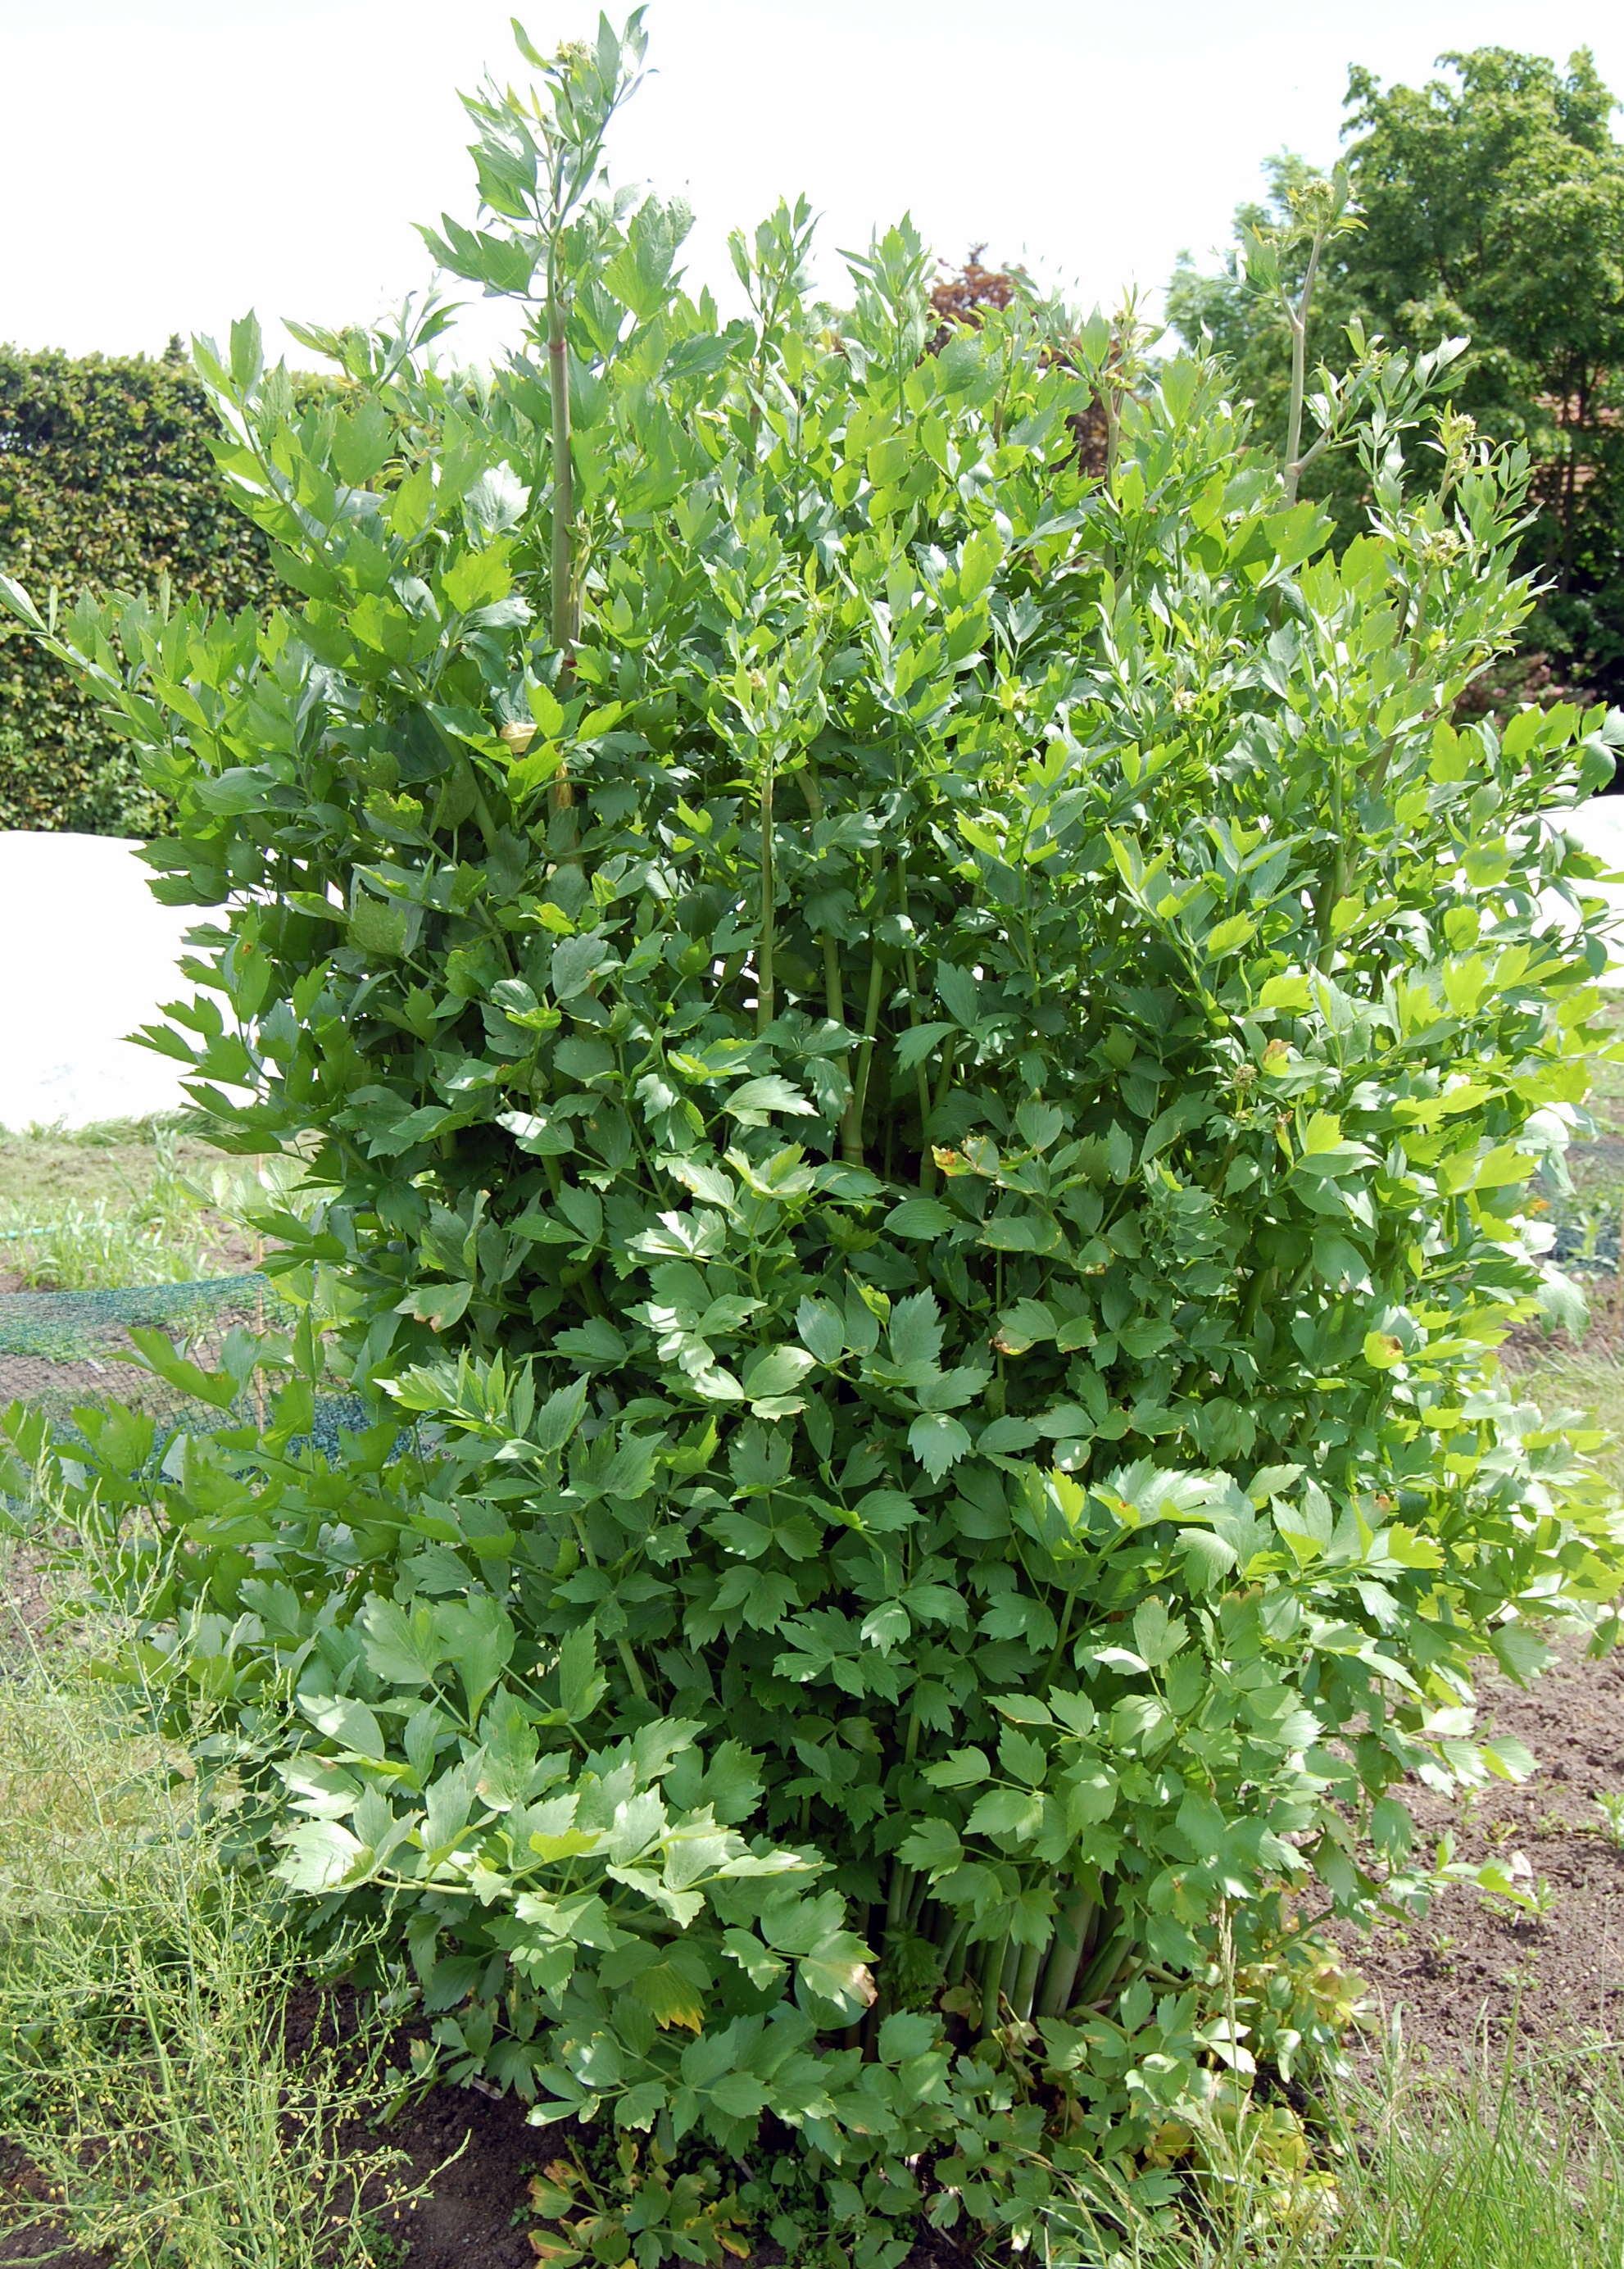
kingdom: Plantae
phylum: Tracheophyta
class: Magnoliopsida
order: Apiales
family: Apiaceae
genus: Levisticum
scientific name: Levisticum officinale
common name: Lovage
